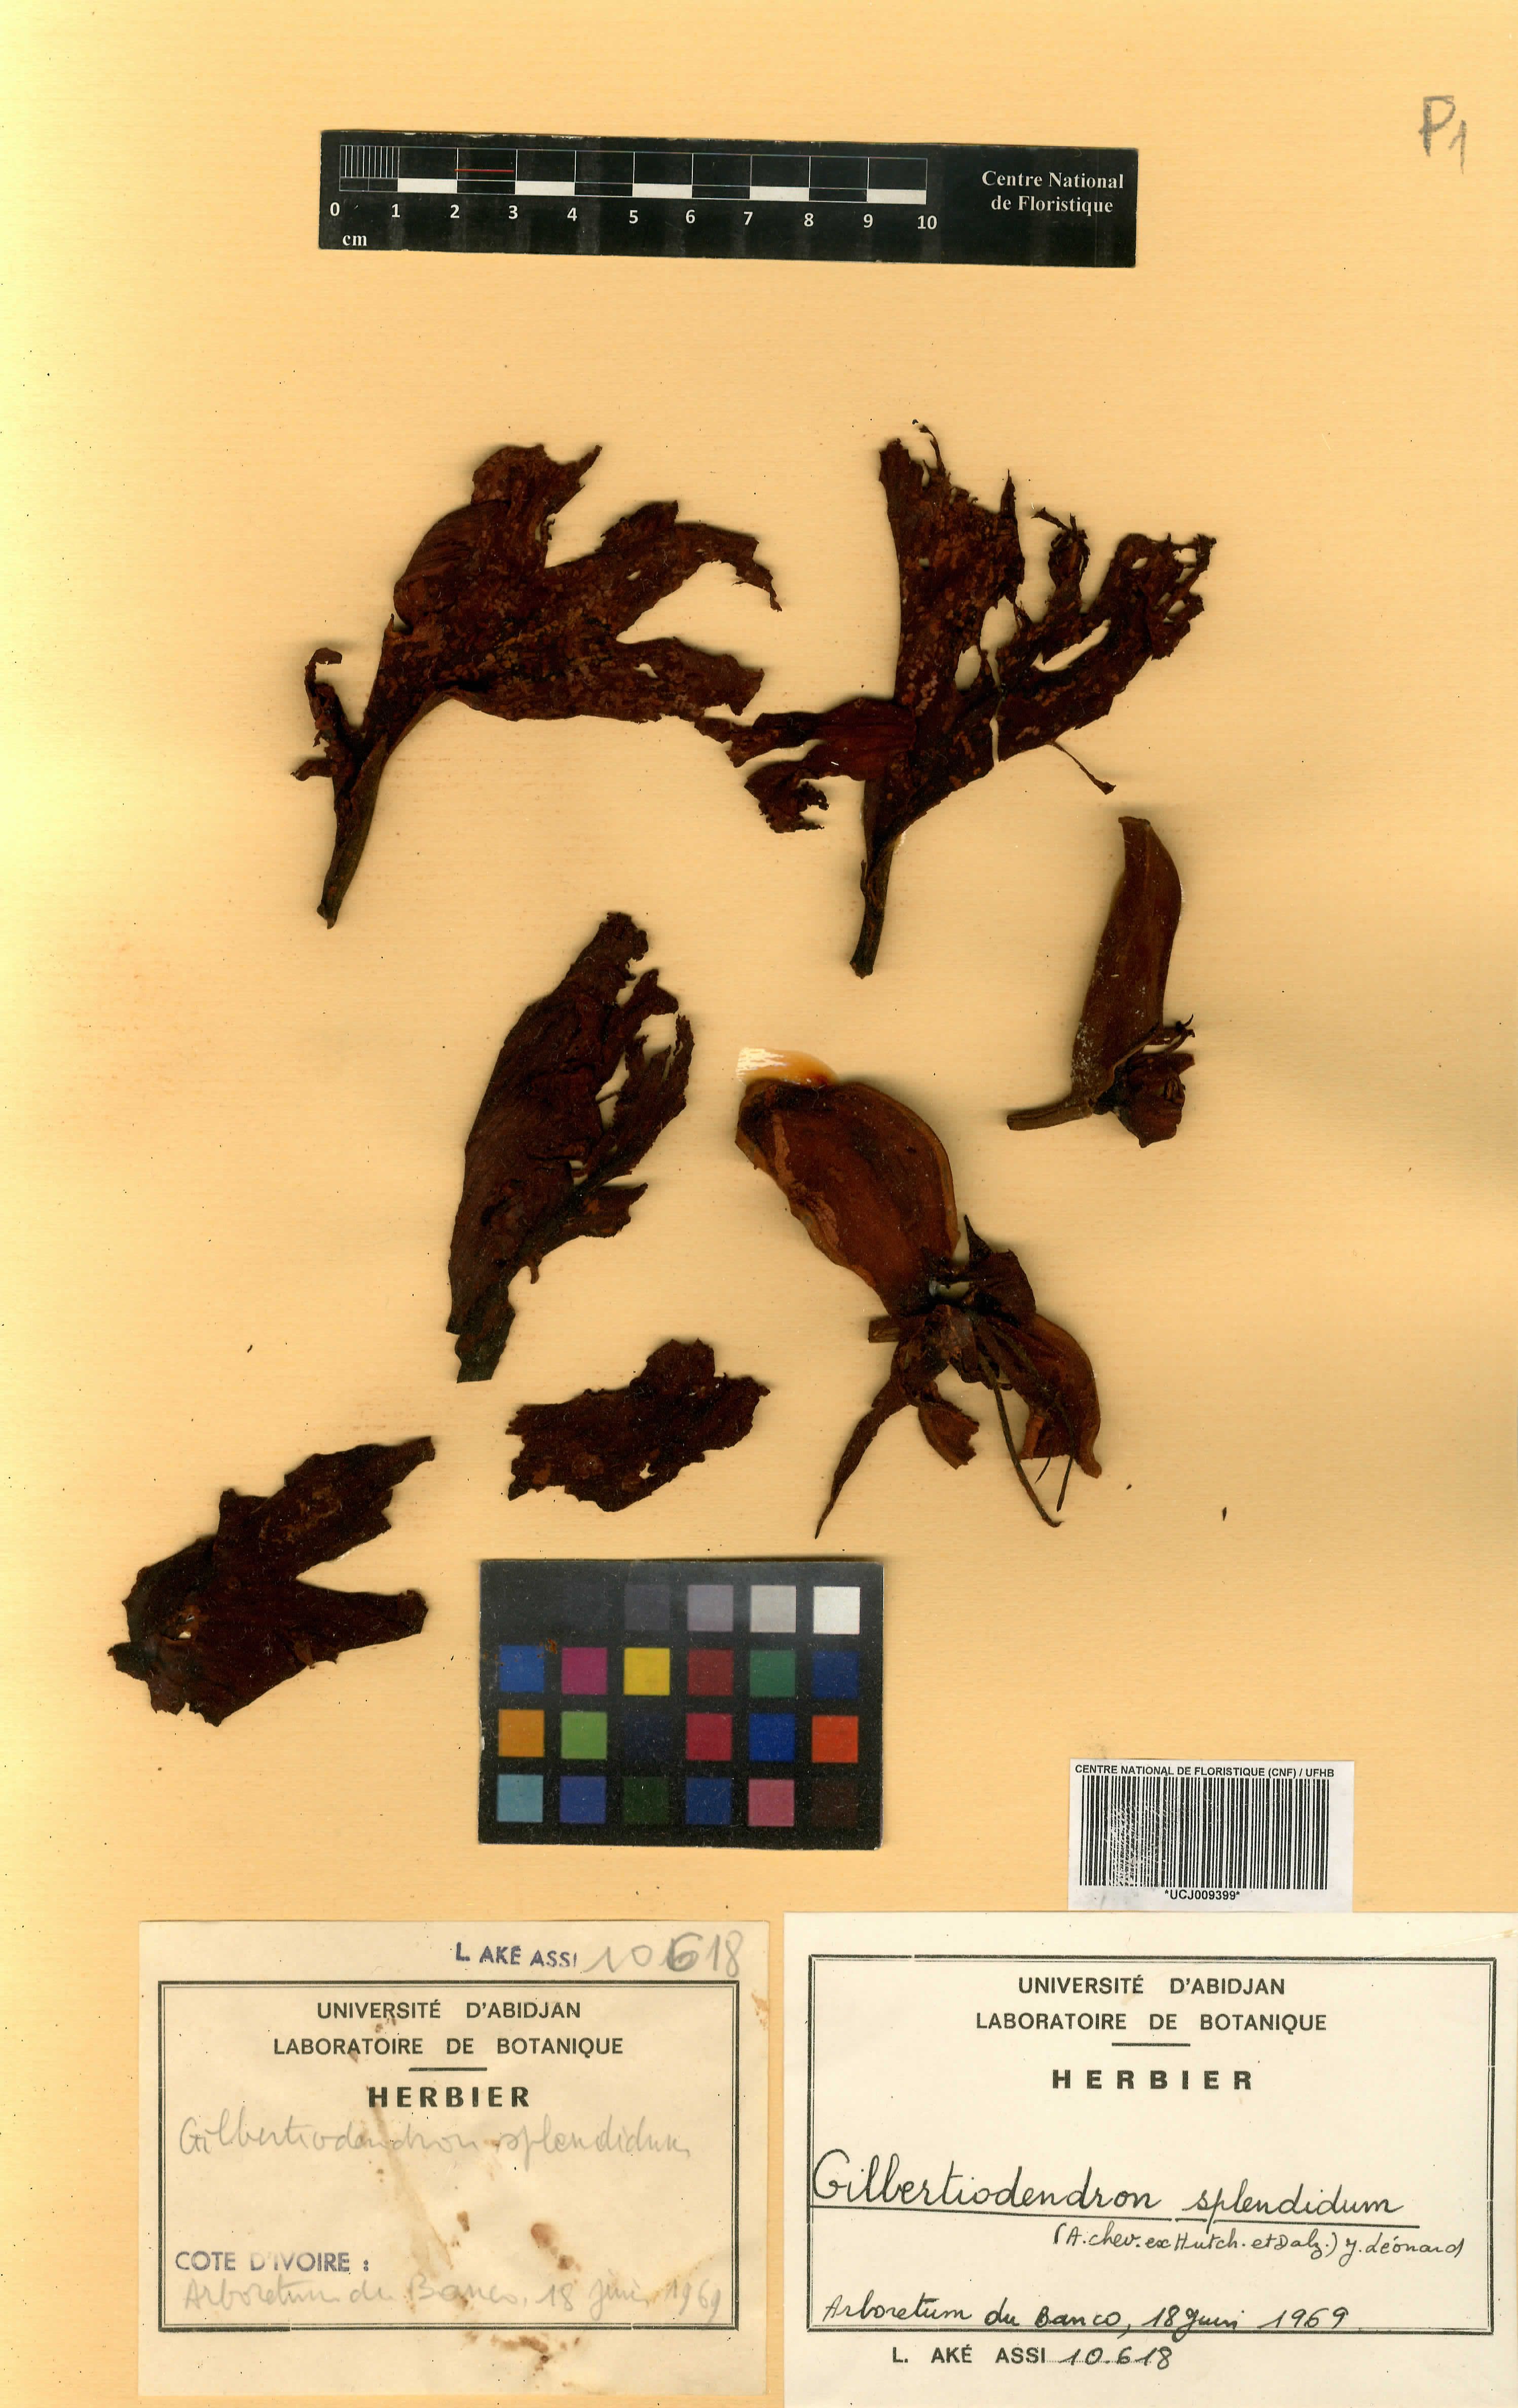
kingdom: Plantae
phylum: Tracheophyta
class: Magnoliopsida
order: Fabales
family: Fabaceae
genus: Gilbertiodendron
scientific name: Gilbertiodendron splendidum
